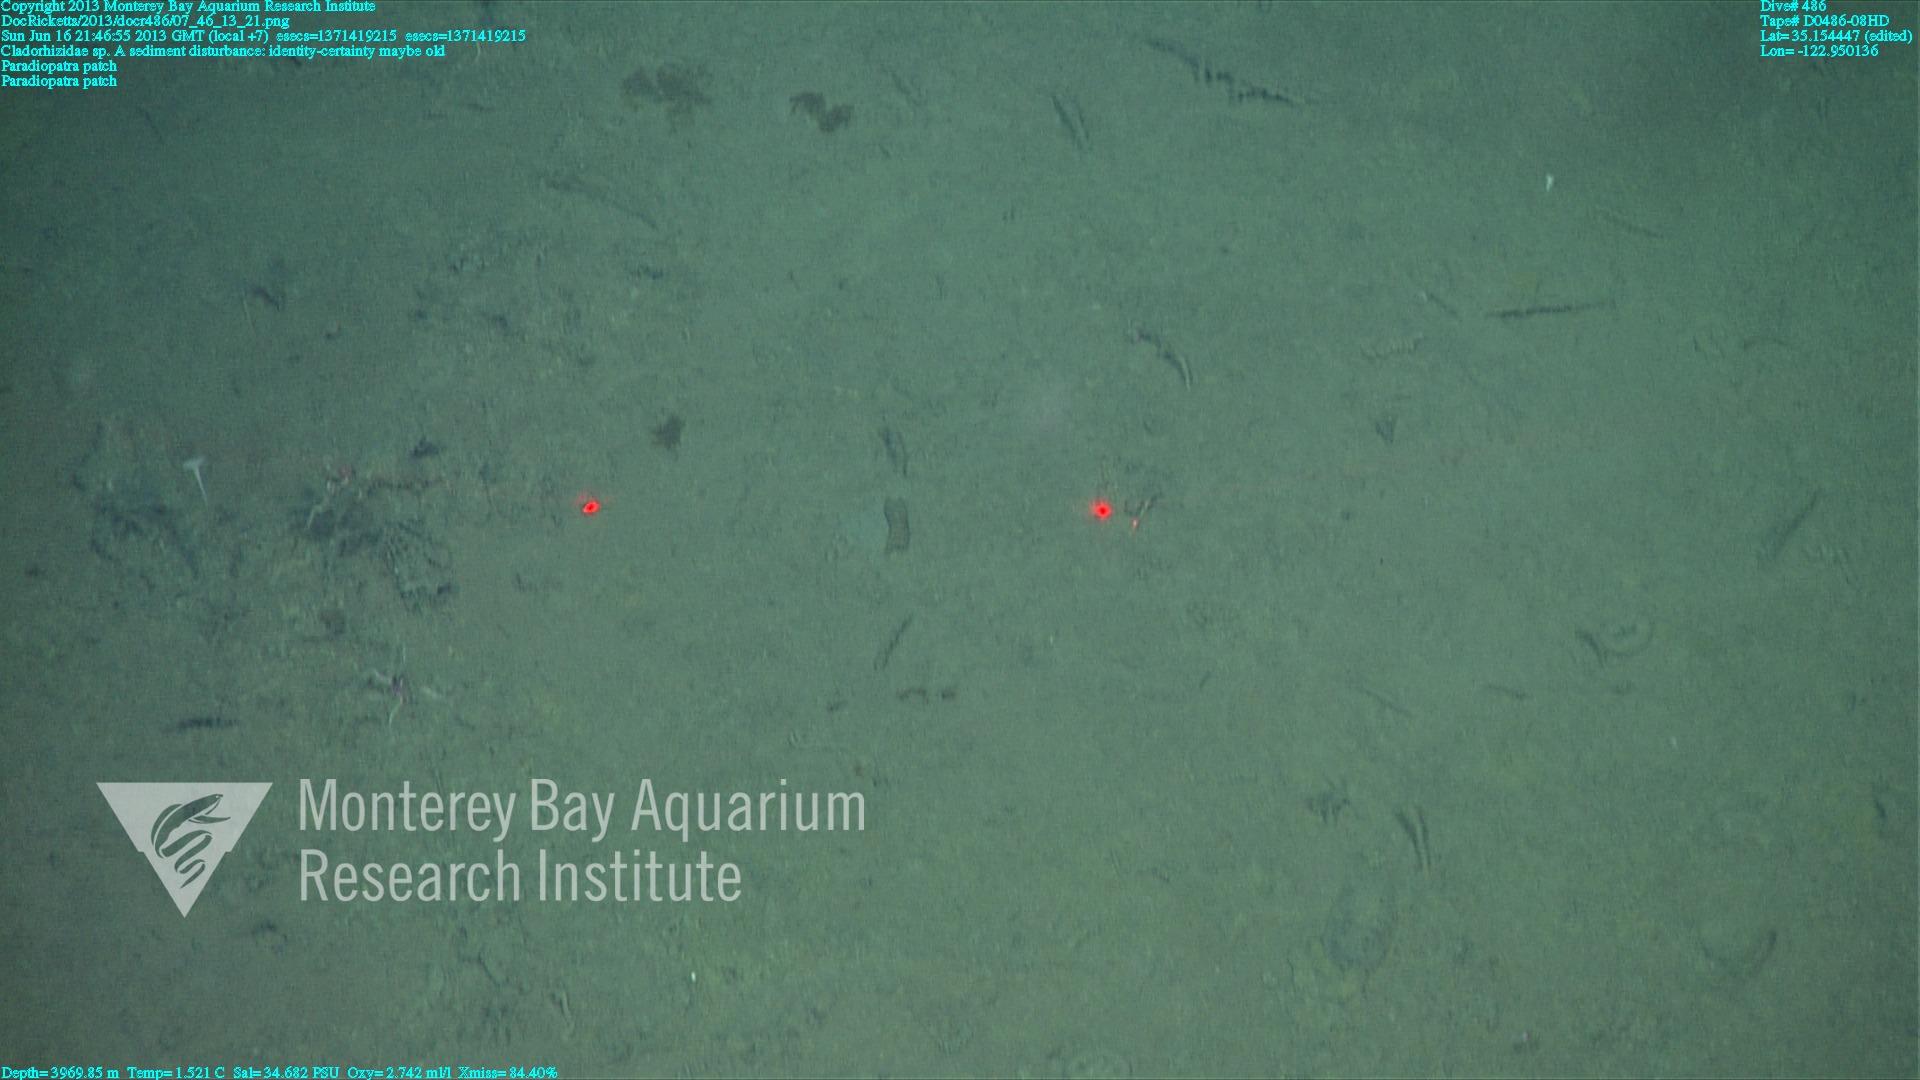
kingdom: Animalia
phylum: Porifera
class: Demospongiae
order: Poecilosclerida
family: Cladorhizidae
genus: Cladorhiza
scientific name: Cladorhiza
